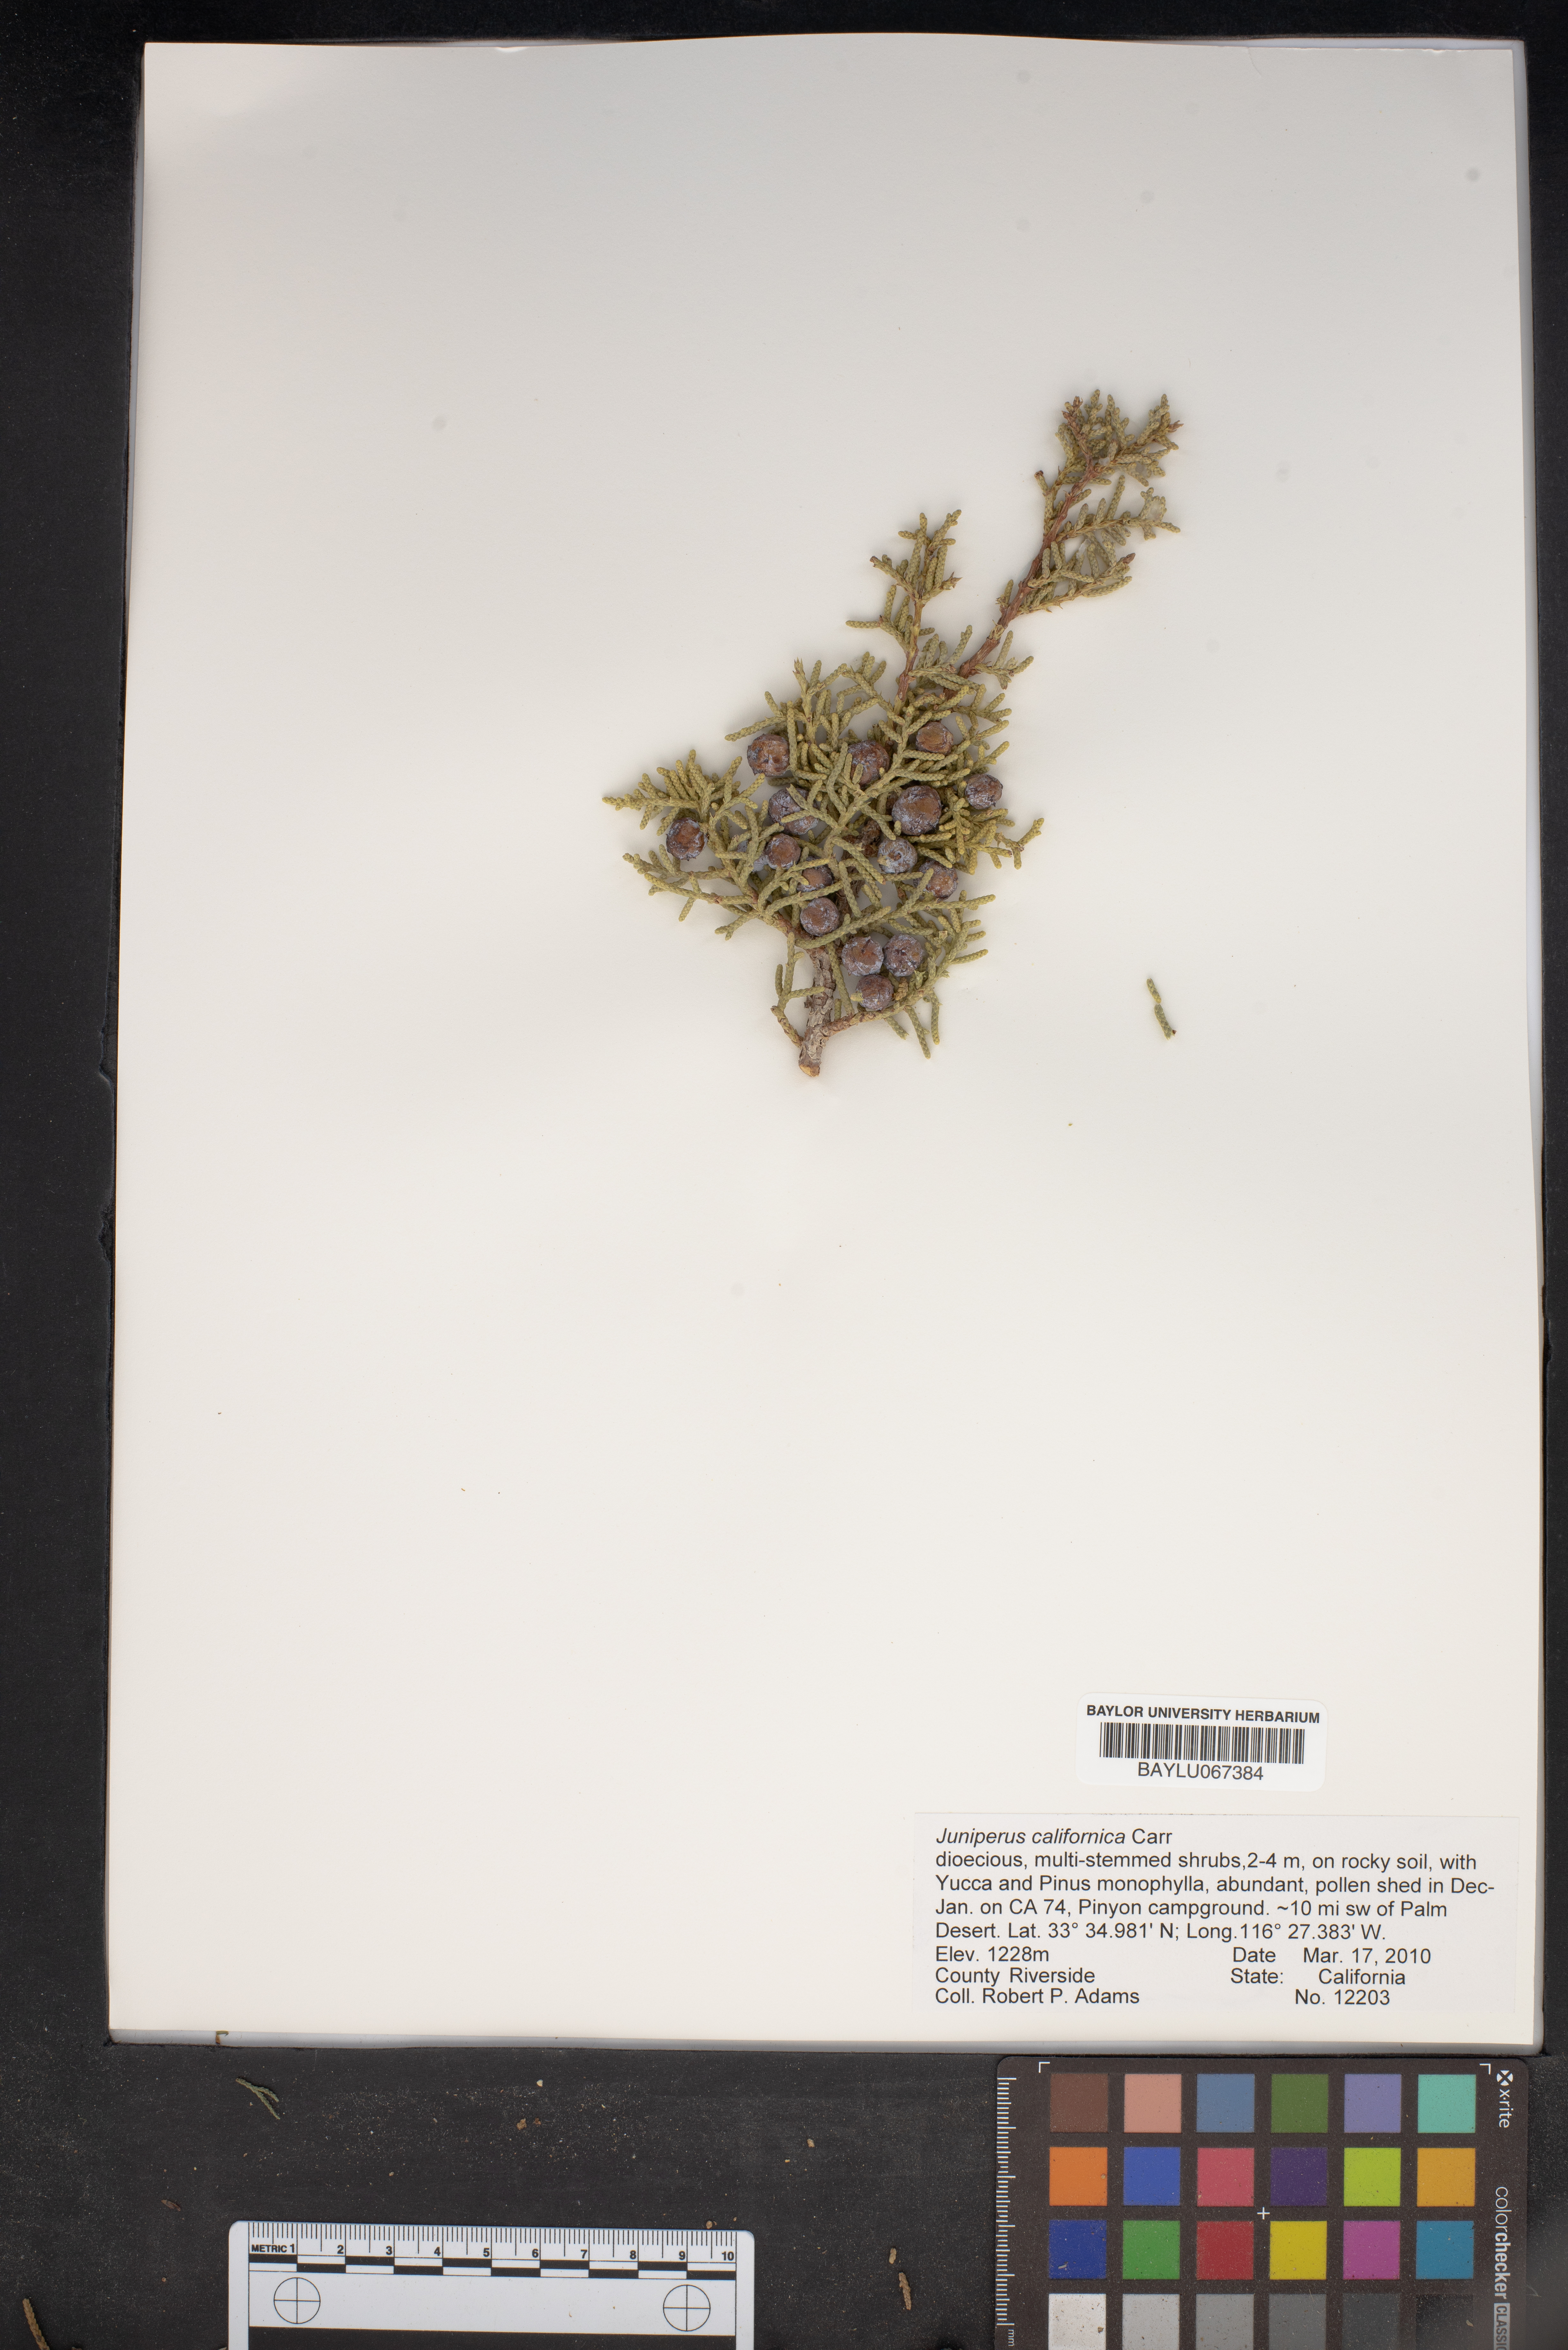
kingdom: Plantae
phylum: Tracheophyta
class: Pinopsida
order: Pinales
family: Cupressaceae
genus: Juniperus
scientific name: Juniperus californica
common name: California juniper
